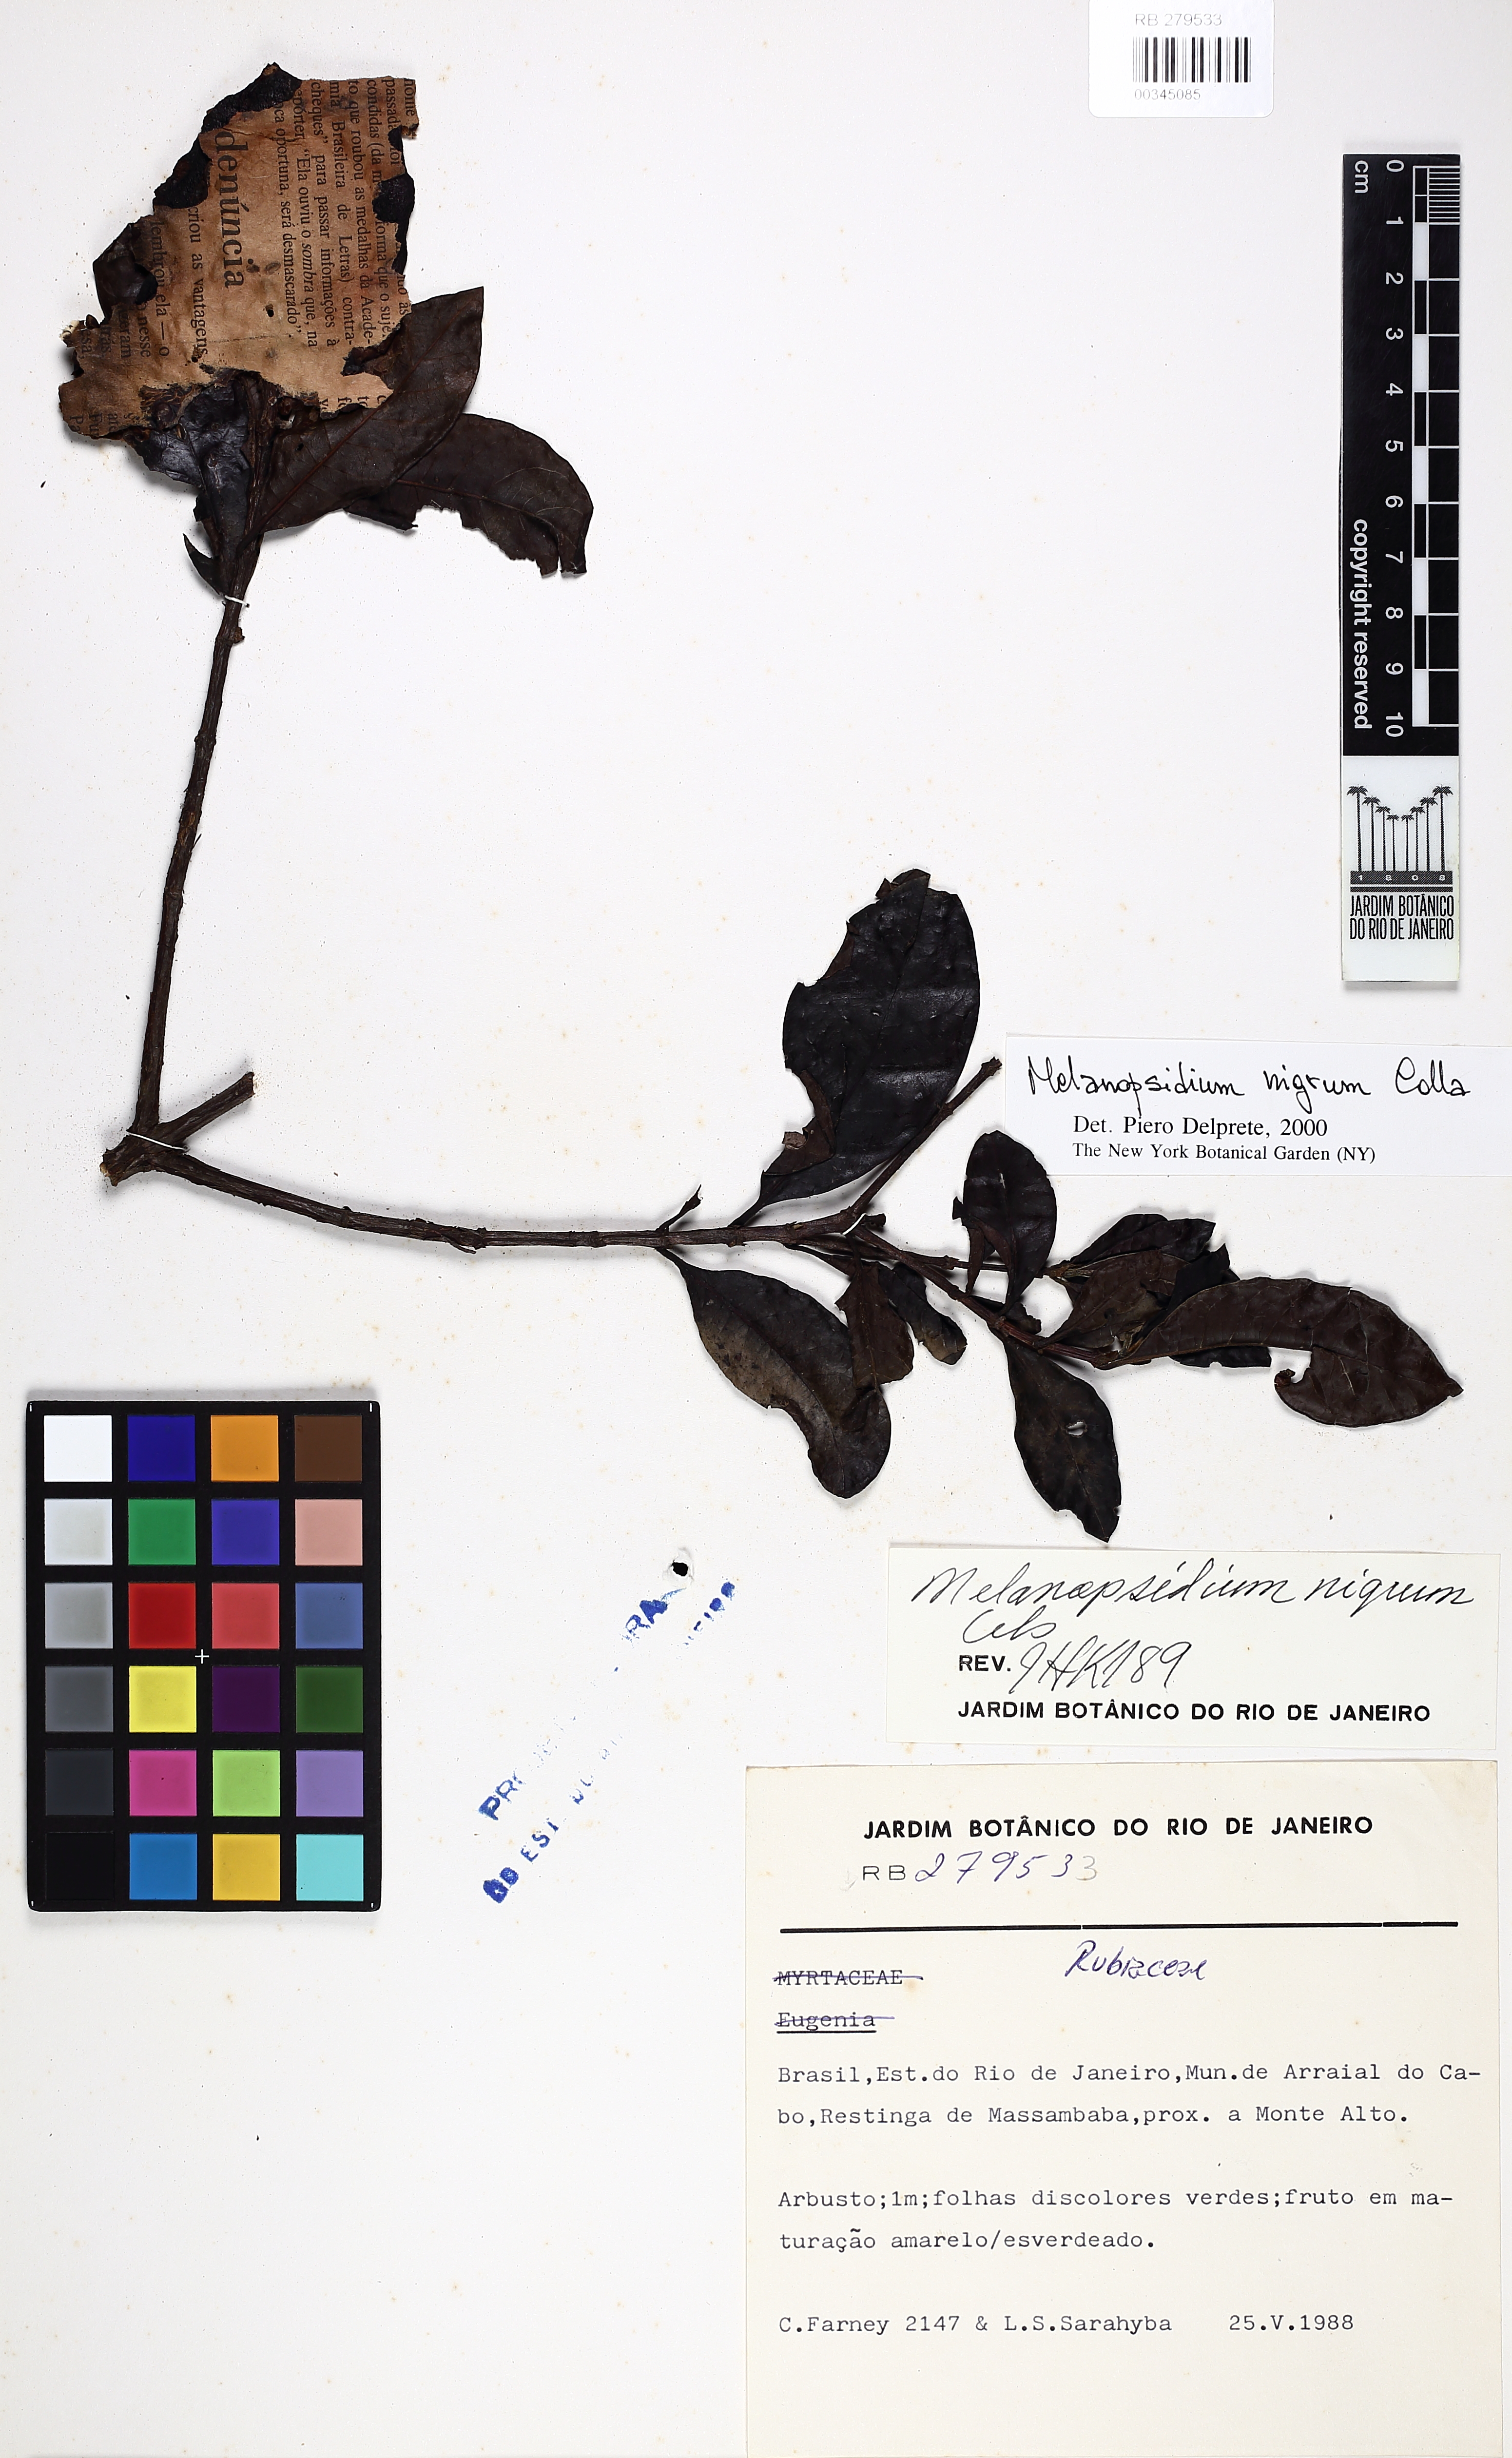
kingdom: Plantae
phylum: Tracheophyta
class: Magnoliopsida
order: Gentianales
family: Rubiaceae
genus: Melanopsidium
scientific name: Melanopsidium nigrum
